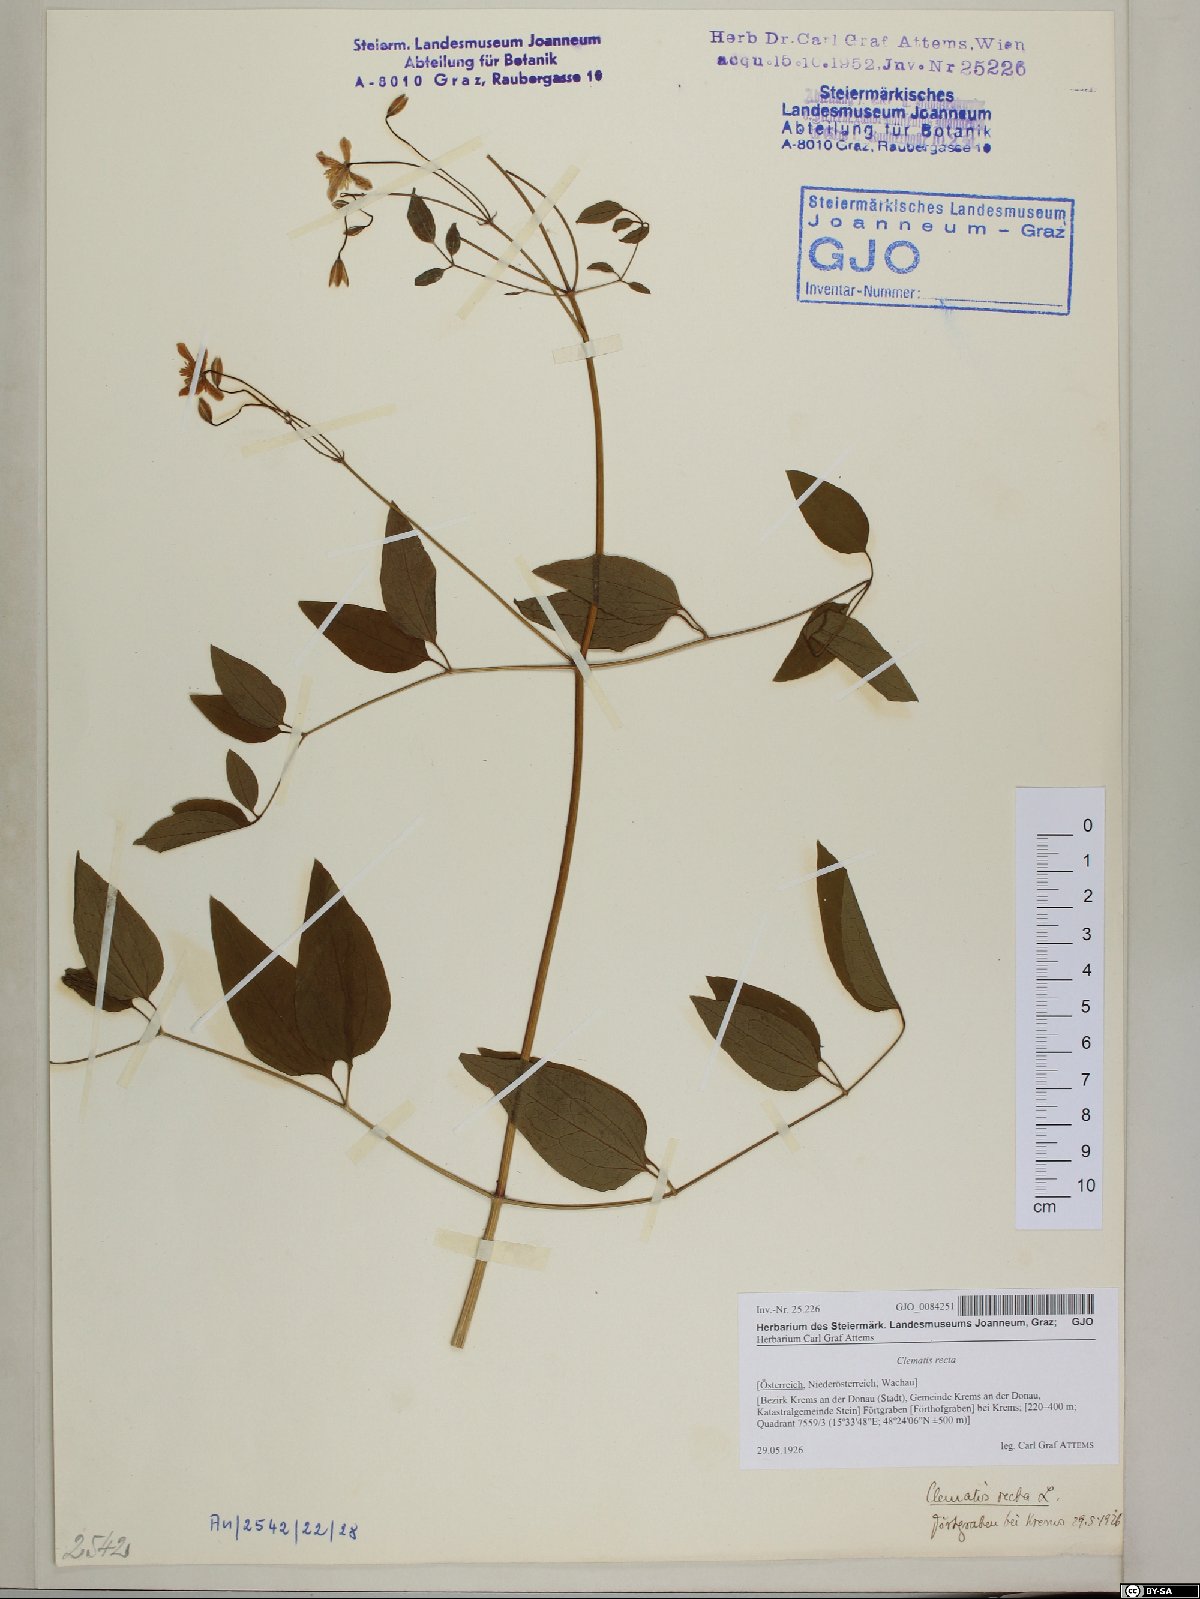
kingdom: Plantae
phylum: Tracheophyta
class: Magnoliopsida
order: Ranunculales
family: Ranunculaceae
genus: Clematis
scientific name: Clematis recta
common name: Ground clematis
